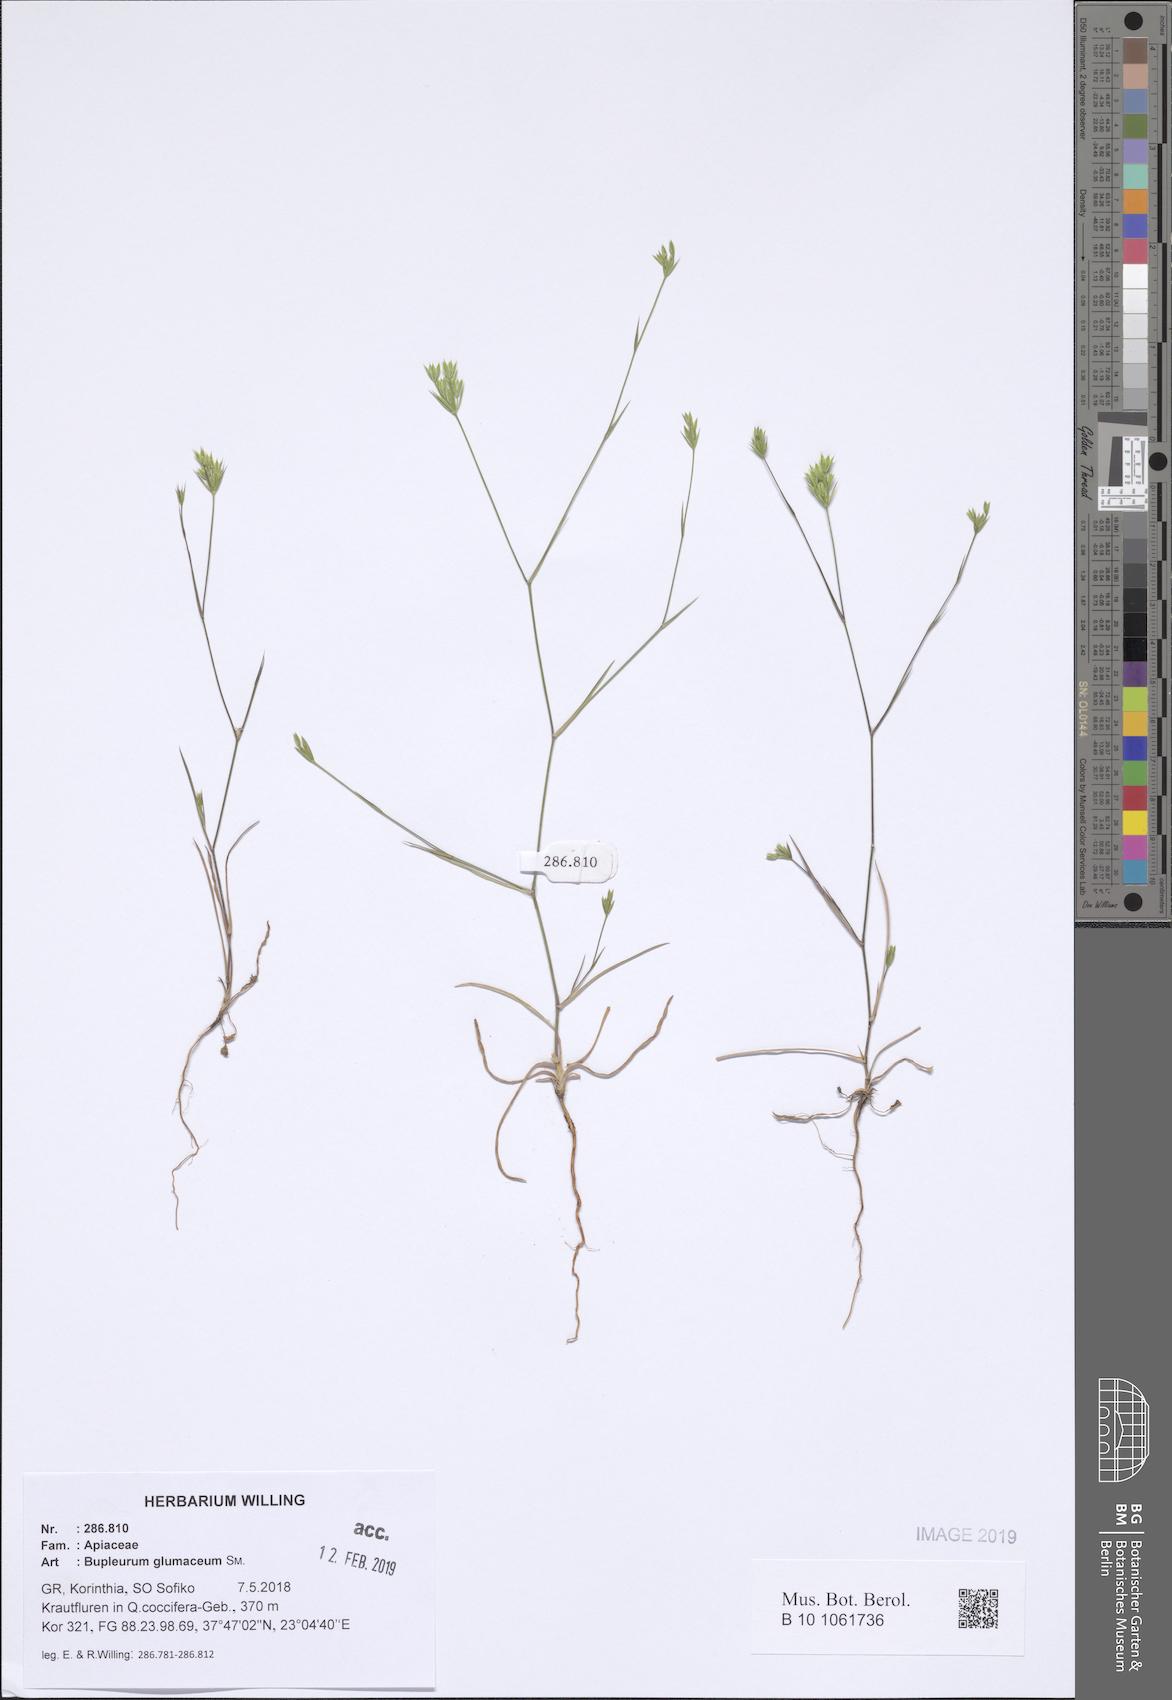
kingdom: Plantae
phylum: Tracheophyta
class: Magnoliopsida
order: Apiales
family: Apiaceae
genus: Bupleurum
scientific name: Bupleurum glumaceum
